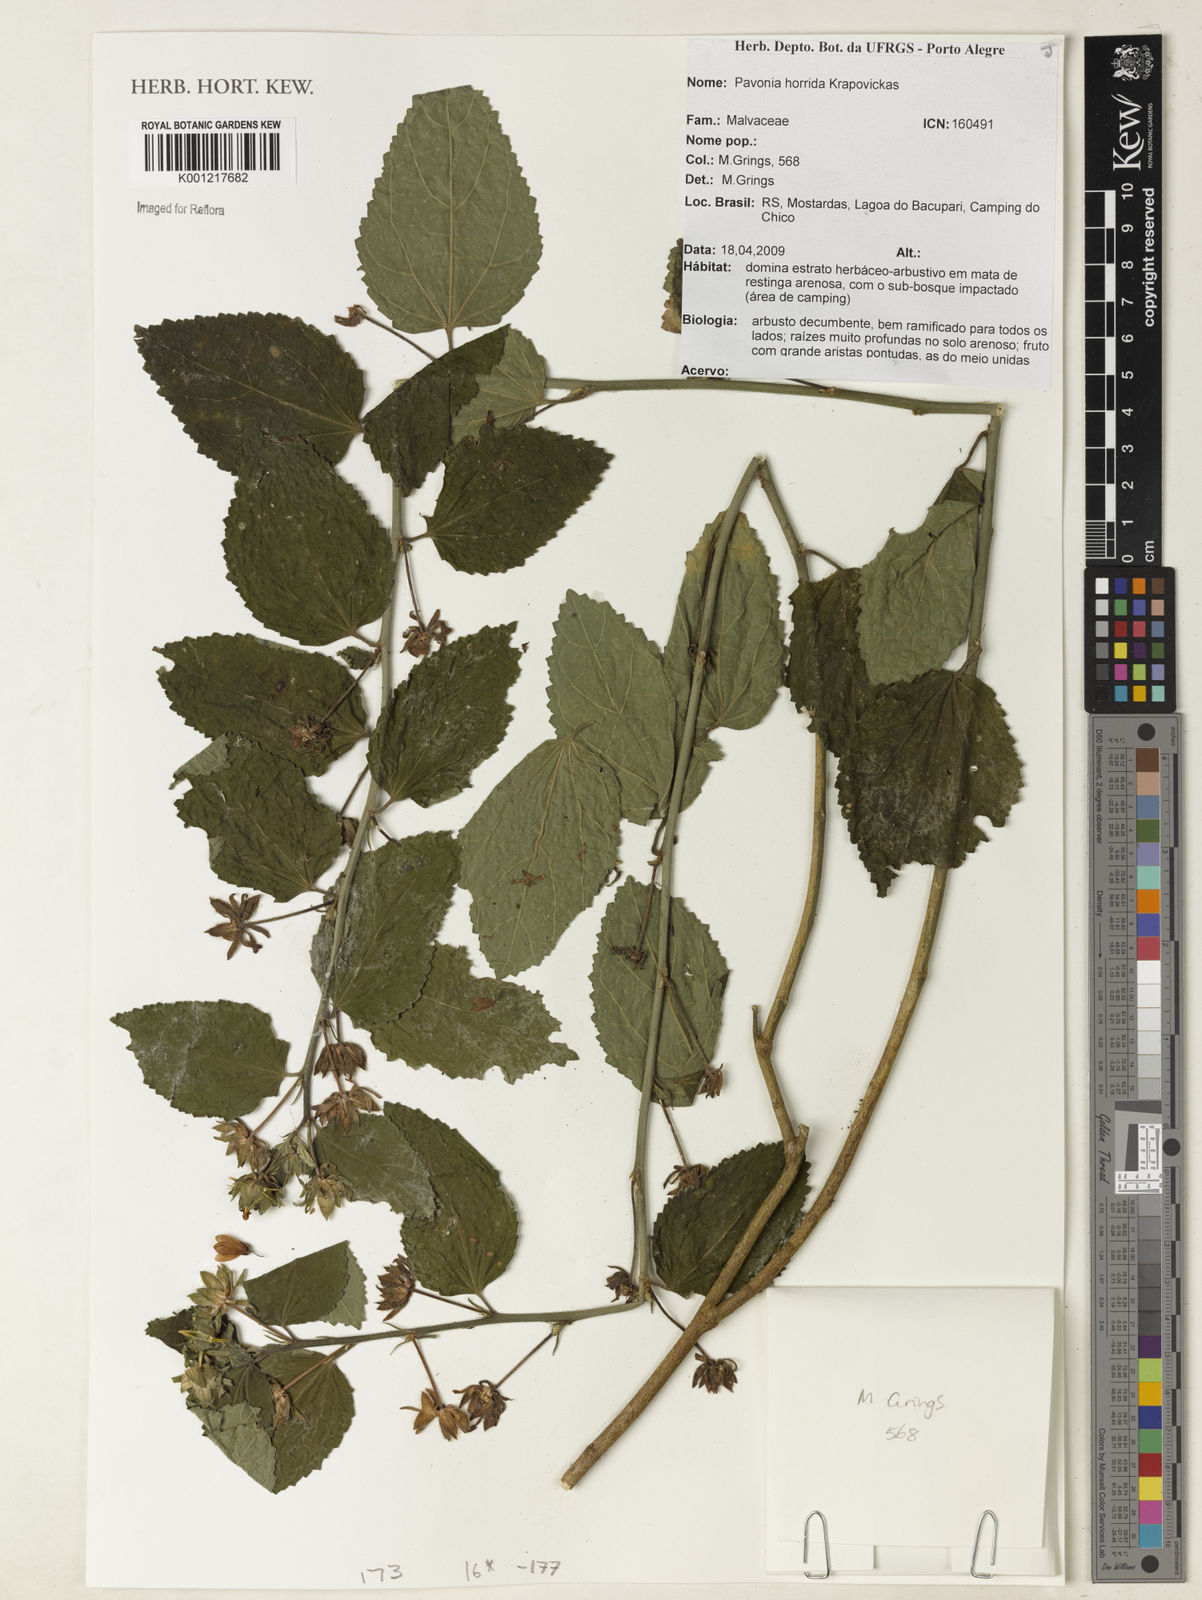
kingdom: Plantae
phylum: Tracheophyta
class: Magnoliopsida
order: Malvales
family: Malvaceae
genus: Pavonia
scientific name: Pavonia horrida
